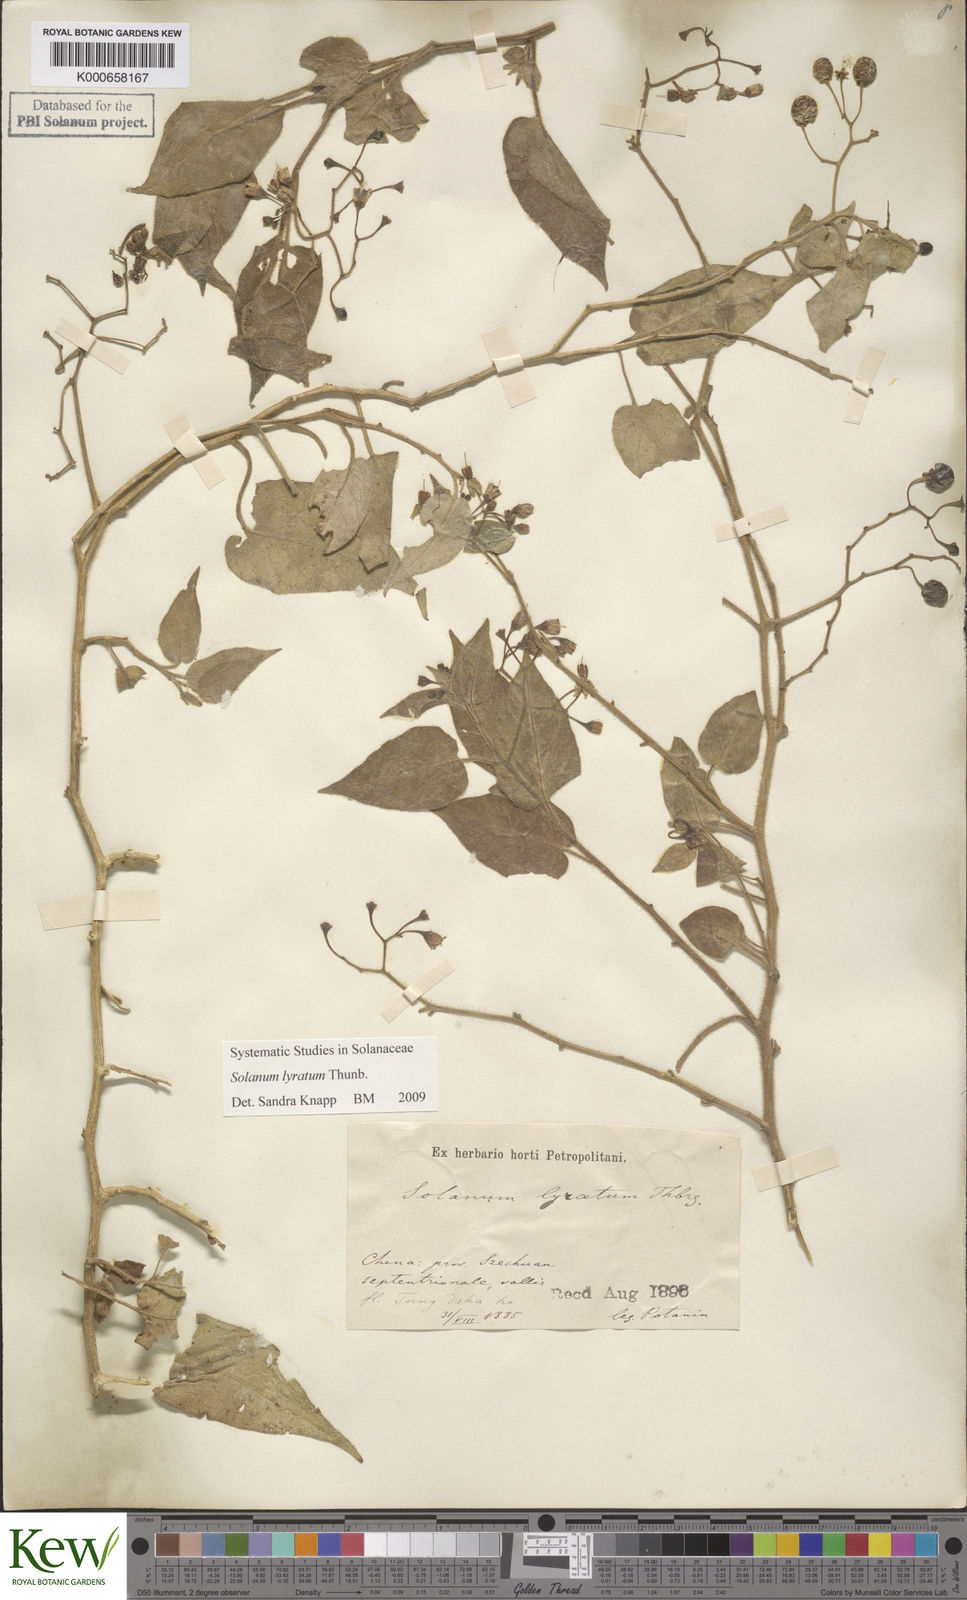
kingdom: Plantae
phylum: Tracheophyta
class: Magnoliopsida
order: Solanales
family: Solanaceae
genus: Solanum
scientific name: Solanum lyratum
